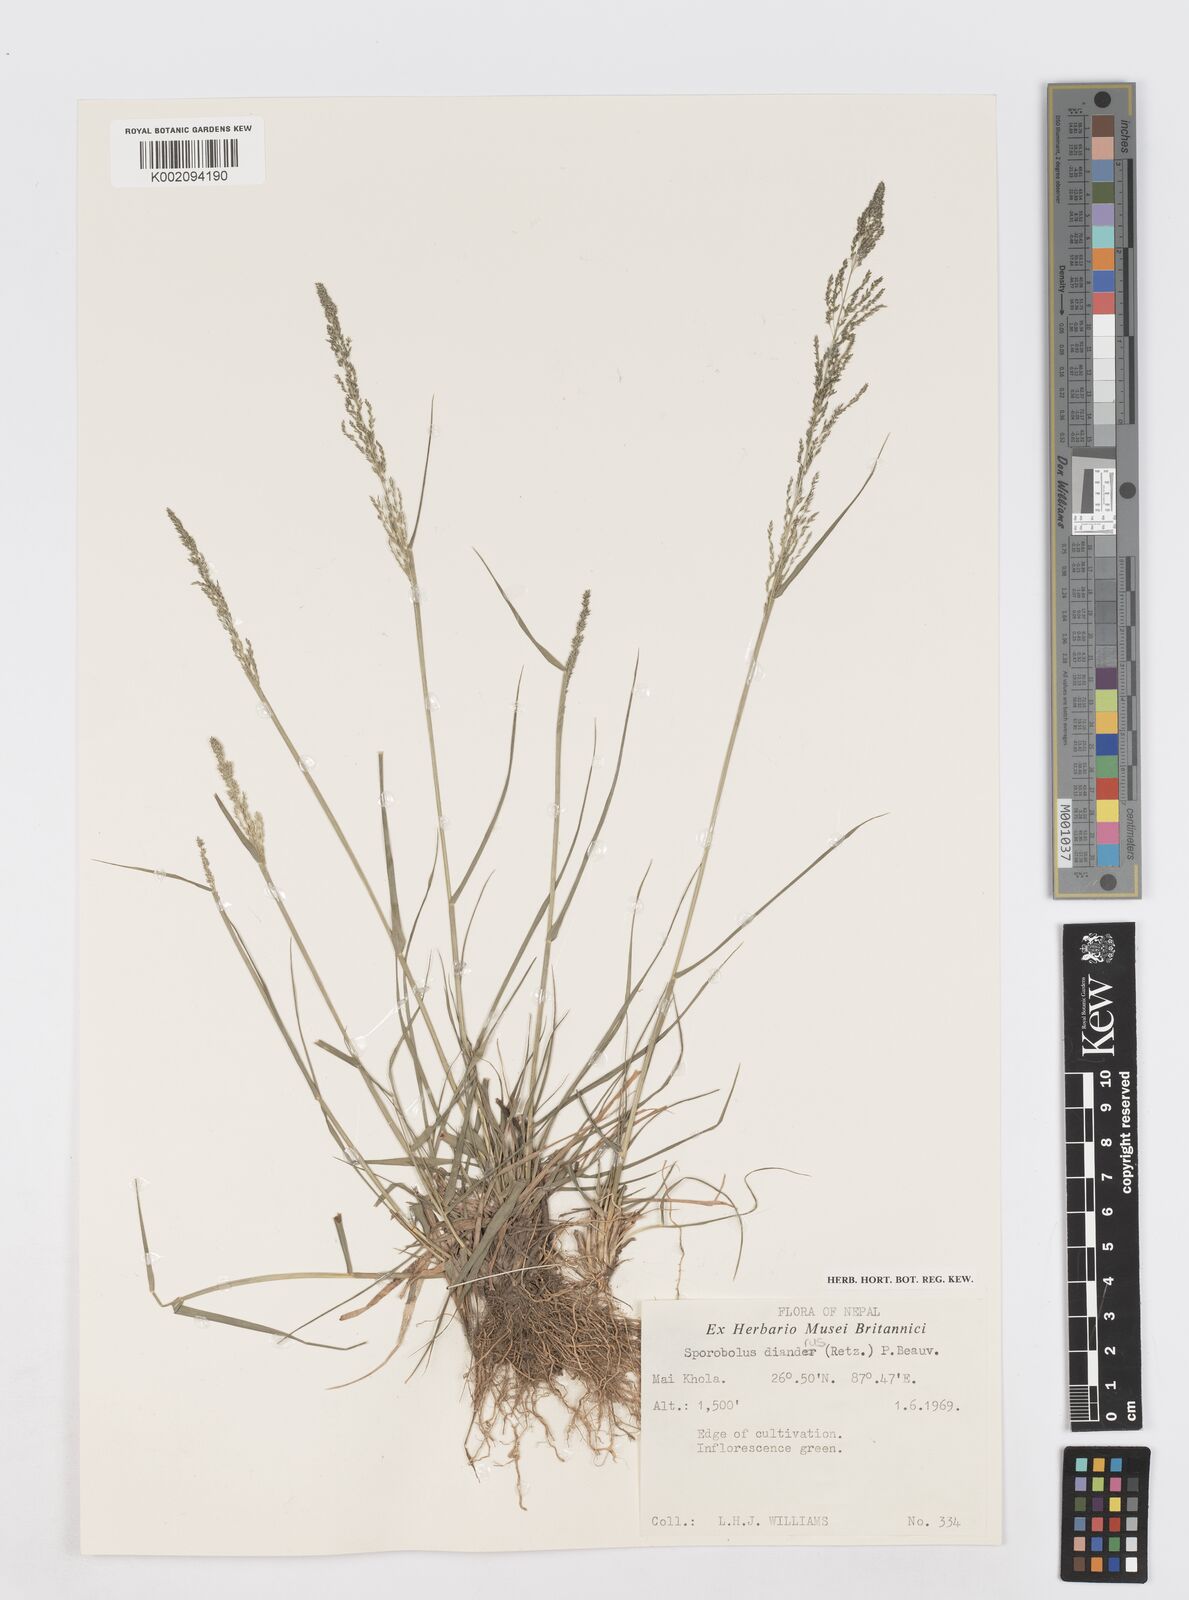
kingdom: Plantae
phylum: Tracheophyta
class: Liliopsida
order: Poales
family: Poaceae
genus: Sporobolus
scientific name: Sporobolus diandrus
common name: Tussock dropseed
